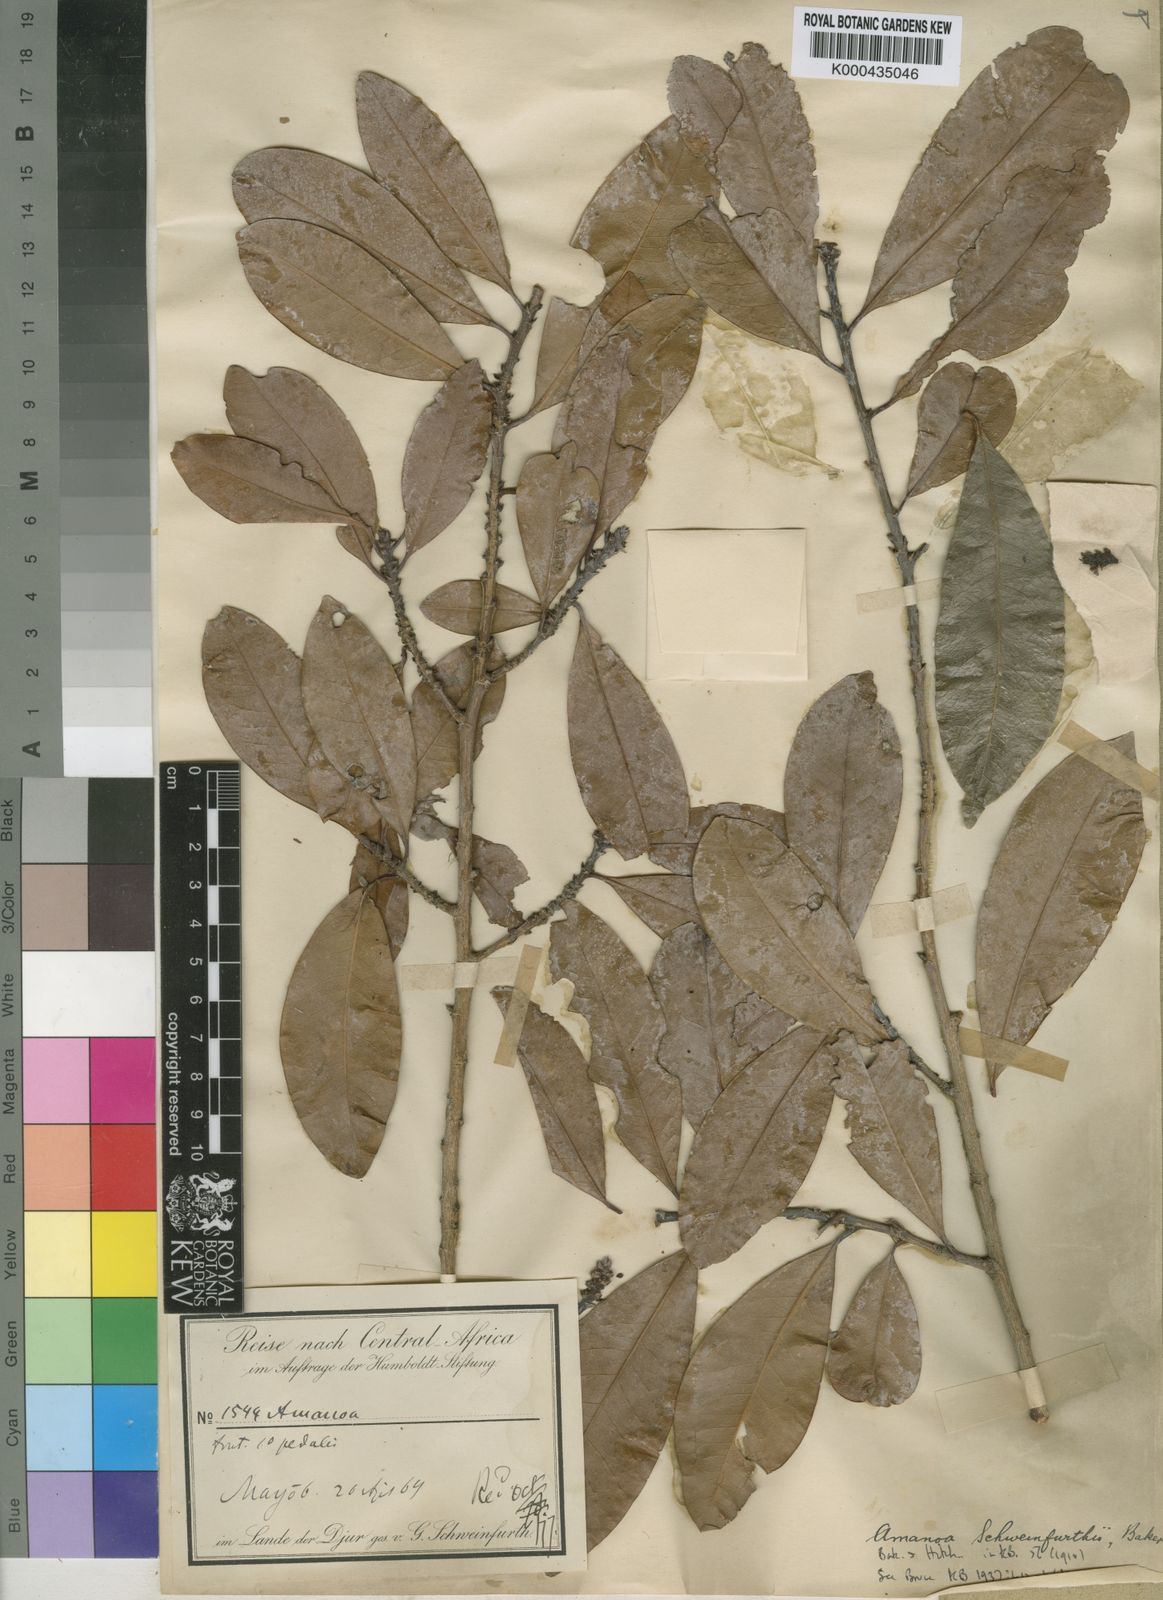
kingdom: Plantae
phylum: Tracheophyta
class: Magnoliopsida
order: Malpighiales
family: Erythroxylaceae
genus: Erythroxylum
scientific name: Erythroxylum fischeri
